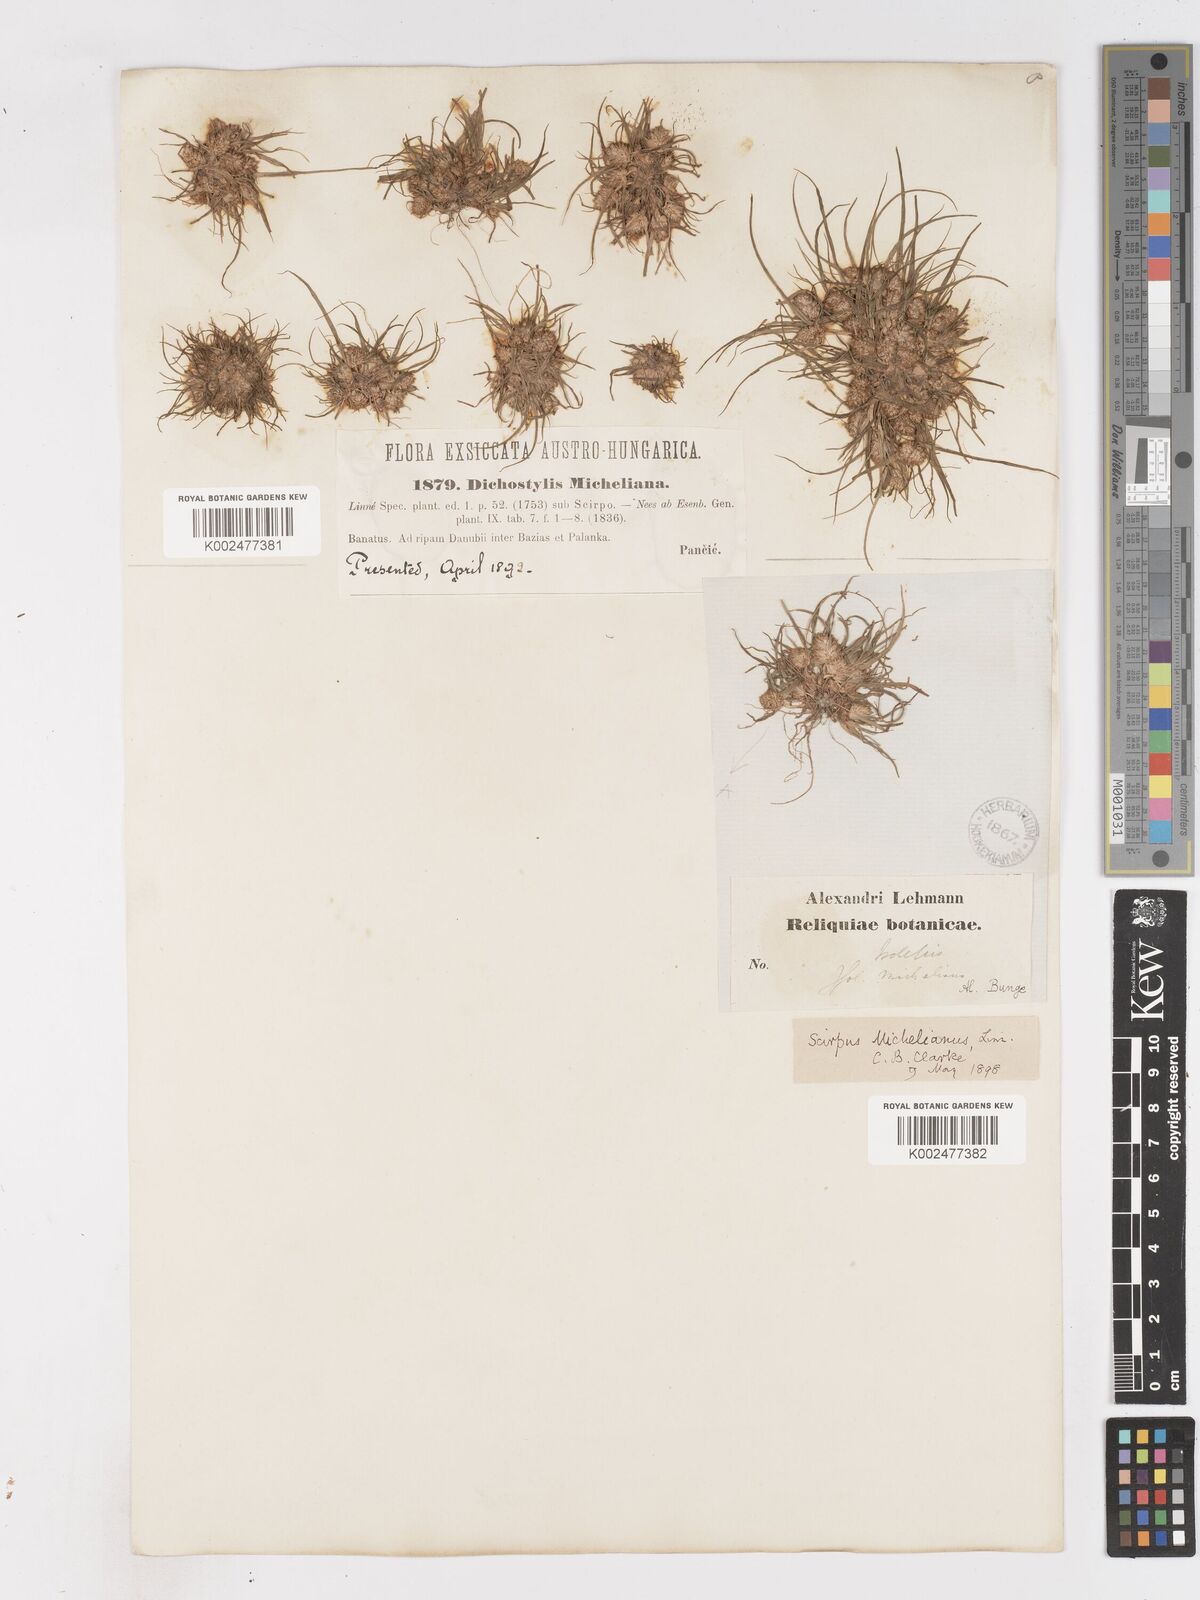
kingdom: Plantae
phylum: Tracheophyta
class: Liliopsida
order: Poales
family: Cyperaceae
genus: Cyperus
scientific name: Cyperus michelianus
